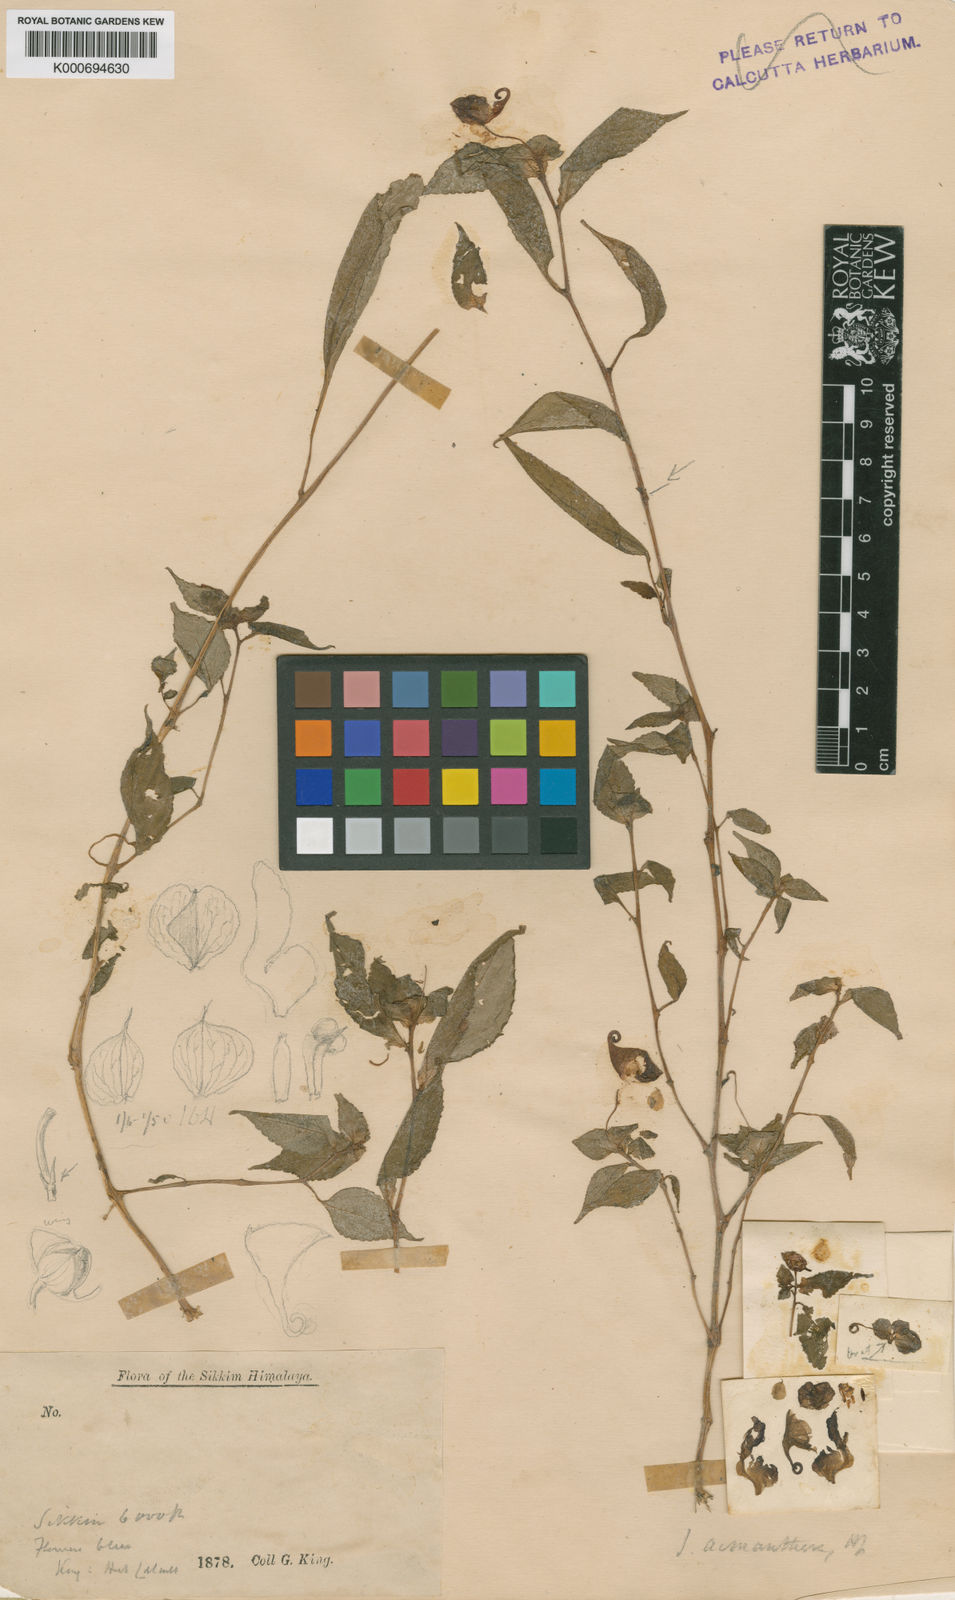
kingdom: Plantae
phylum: Tracheophyta
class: Magnoliopsida
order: Ericales
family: Balsaminaceae
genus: Impatiens
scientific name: Impatiens spirifer
